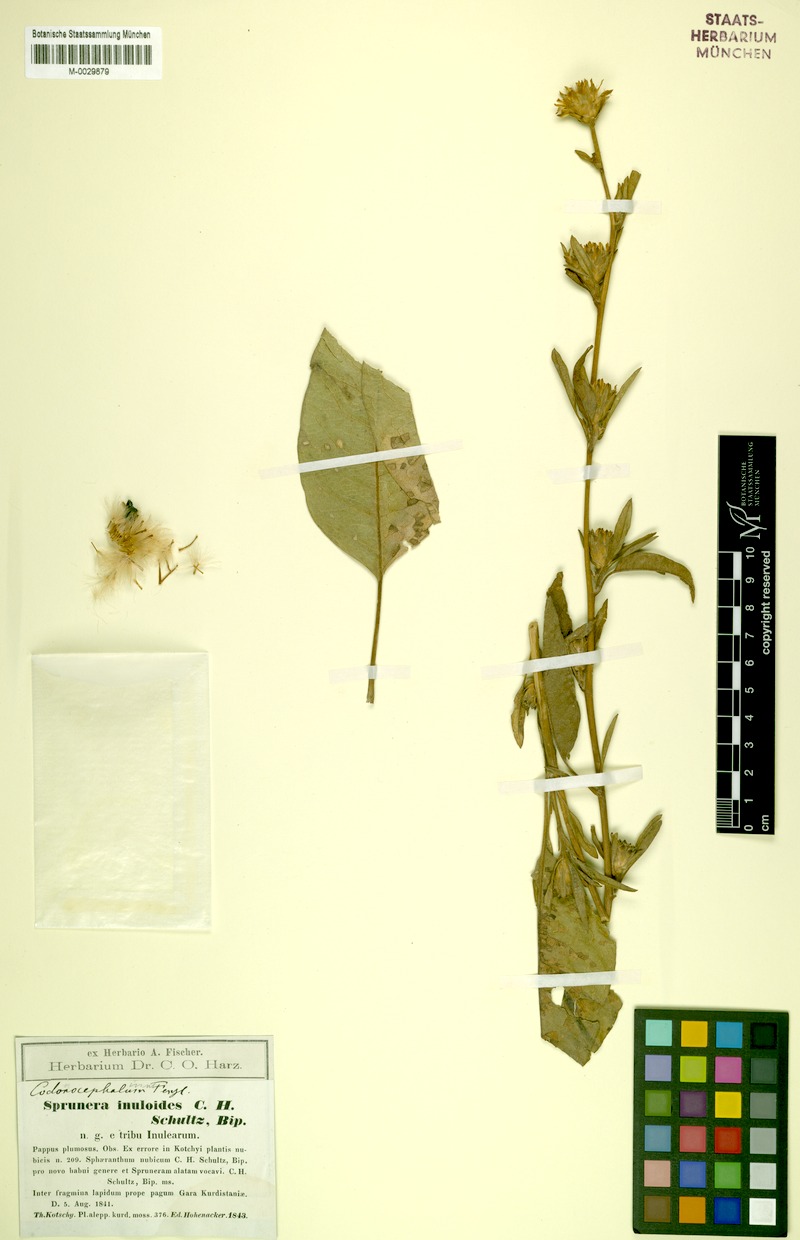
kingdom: Plantae
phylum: Tracheophyta
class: Magnoliopsida
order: Asterales
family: Asteraceae
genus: Inula
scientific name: Inula inuloides
